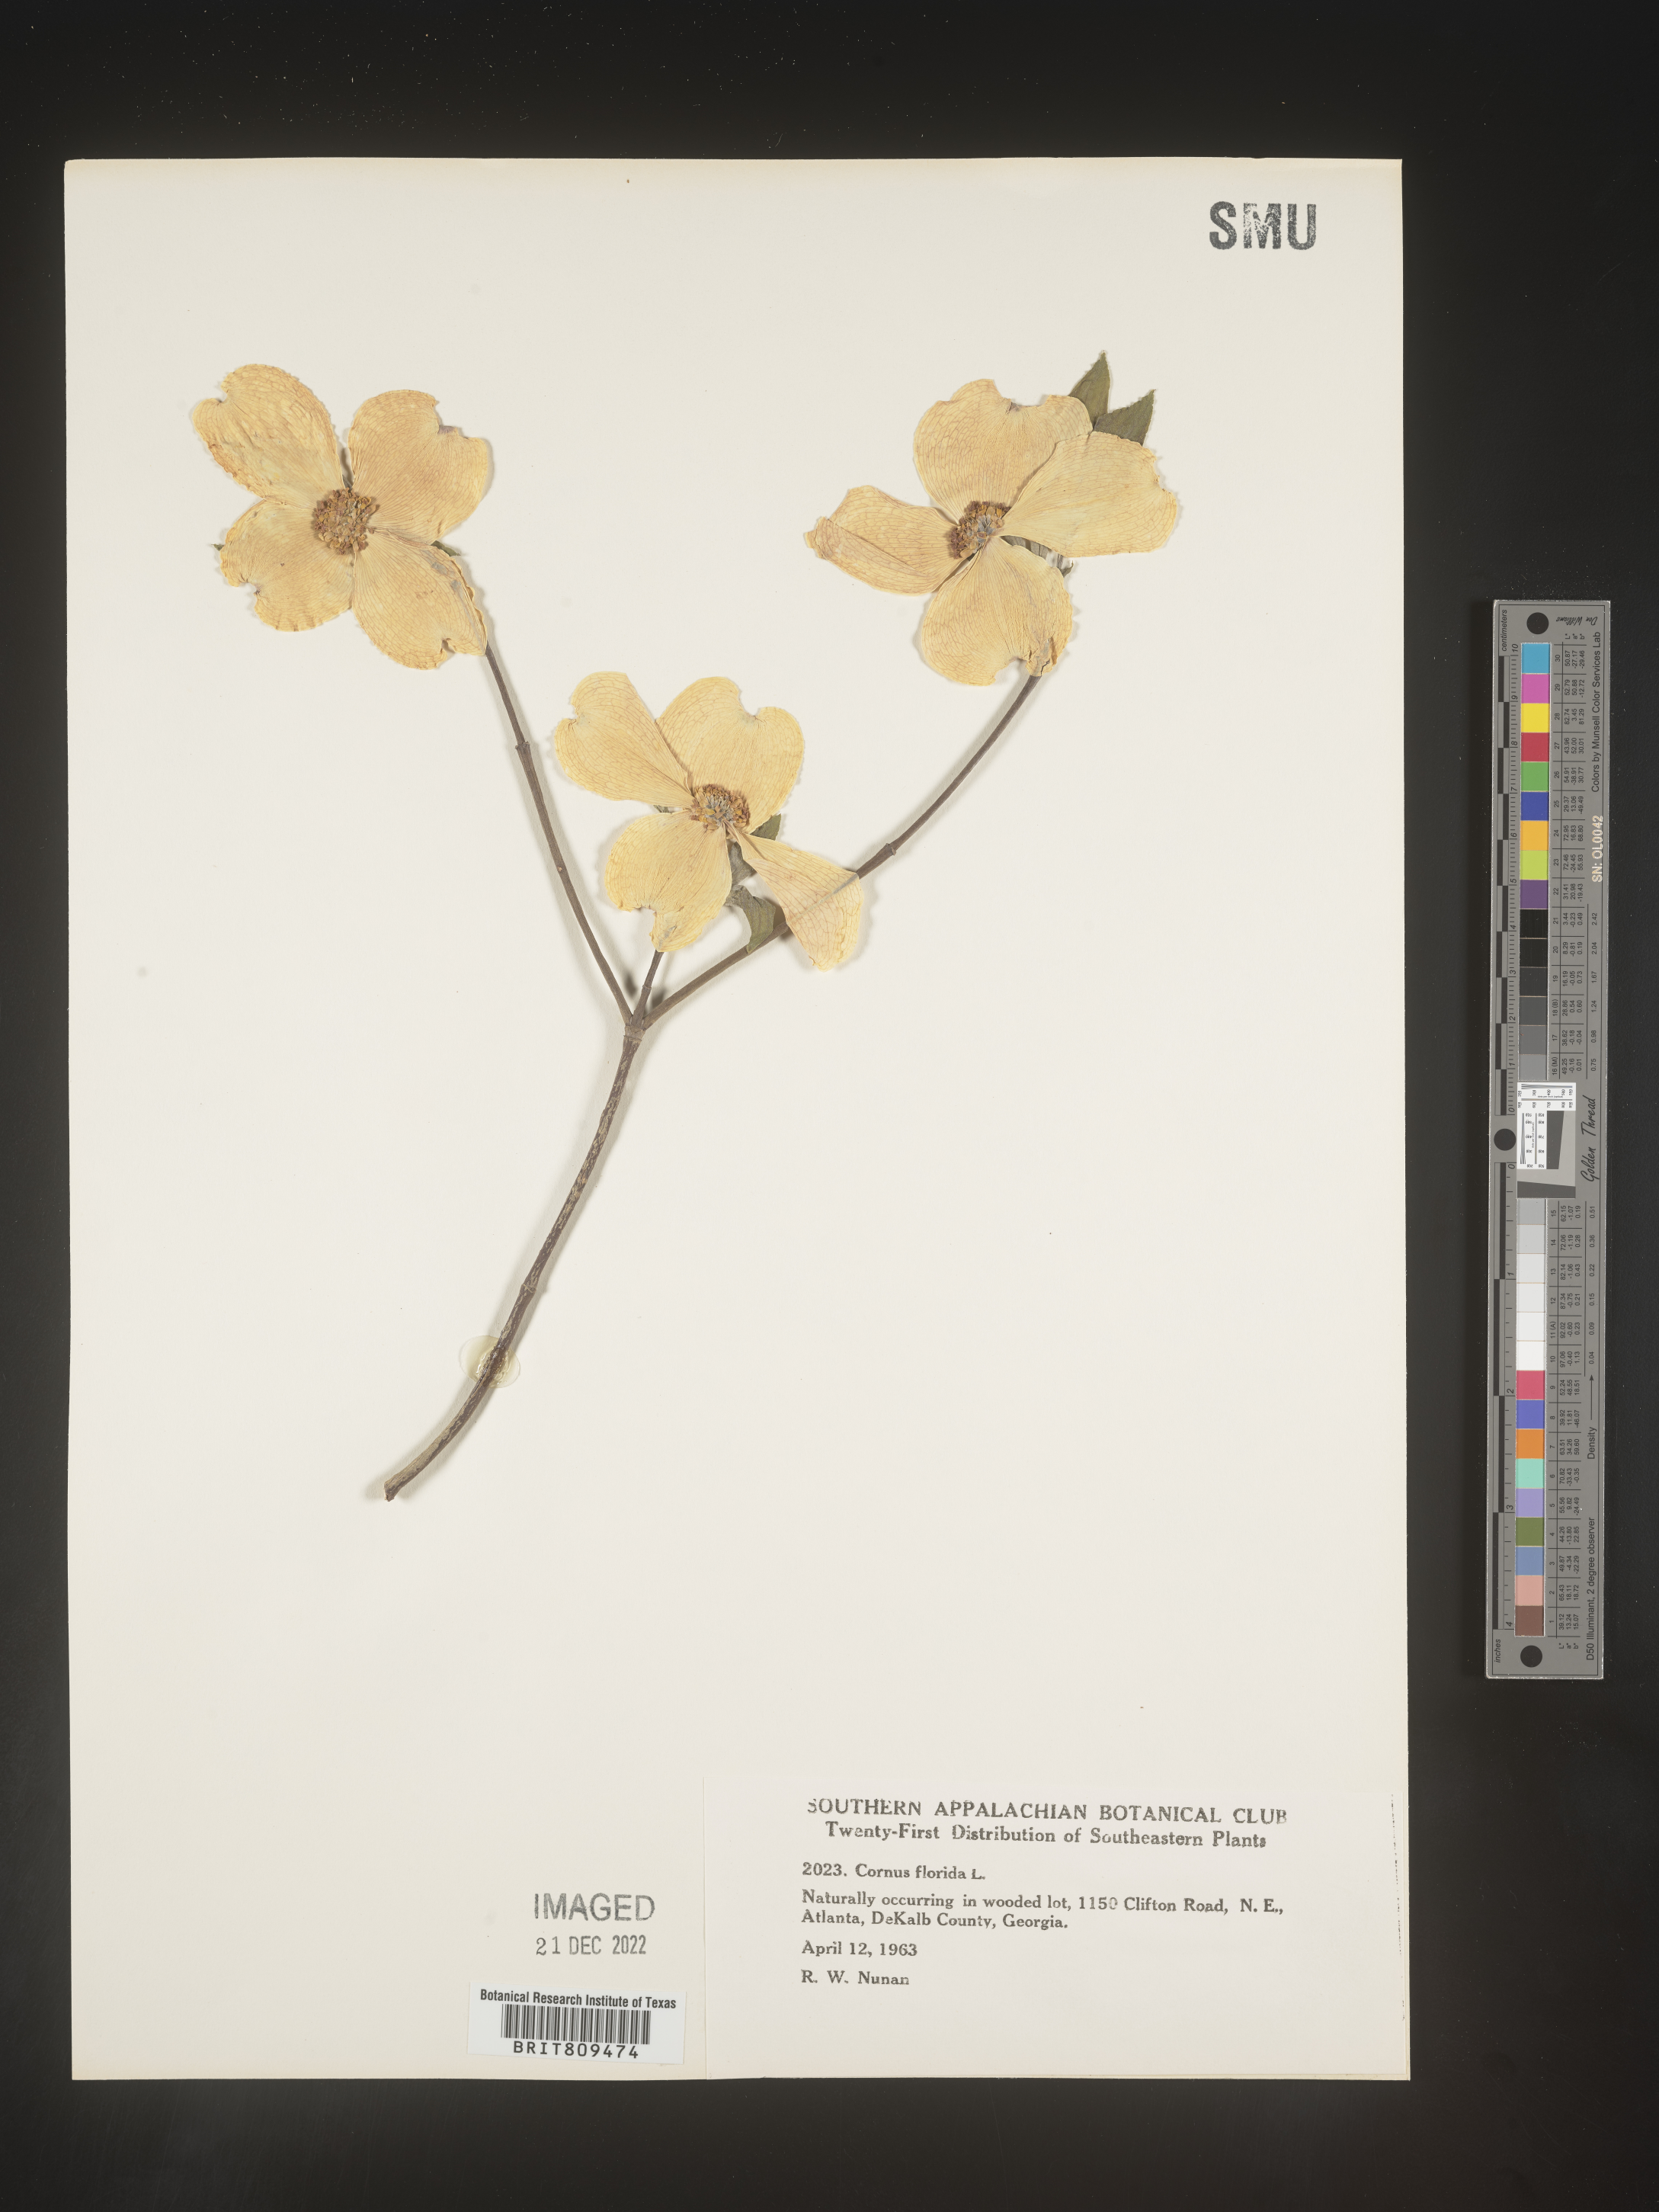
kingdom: Plantae
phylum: Tracheophyta
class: Magnoliopsida
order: Cornales
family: Cornaceae
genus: Cornus
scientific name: Cornus florida
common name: Flowering dogwood
